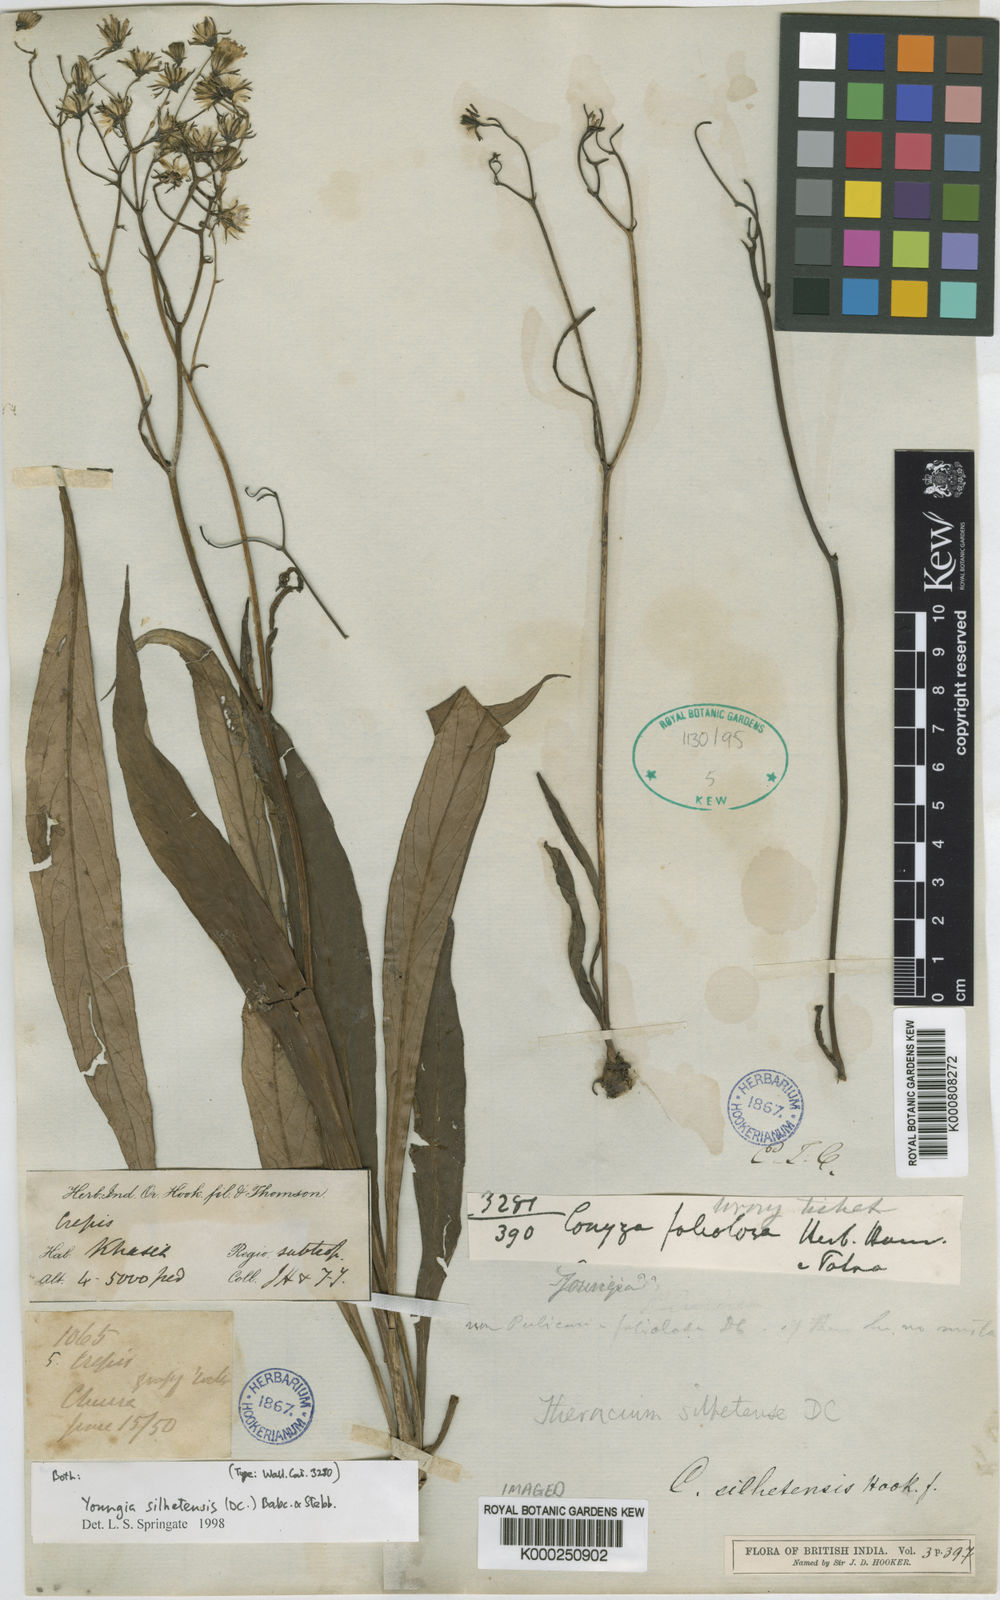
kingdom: Plantae
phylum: Tracheophyta
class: Magnoliopsida
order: Asterales
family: Asteraceae
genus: Faberia
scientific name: Faberia silhetensis
